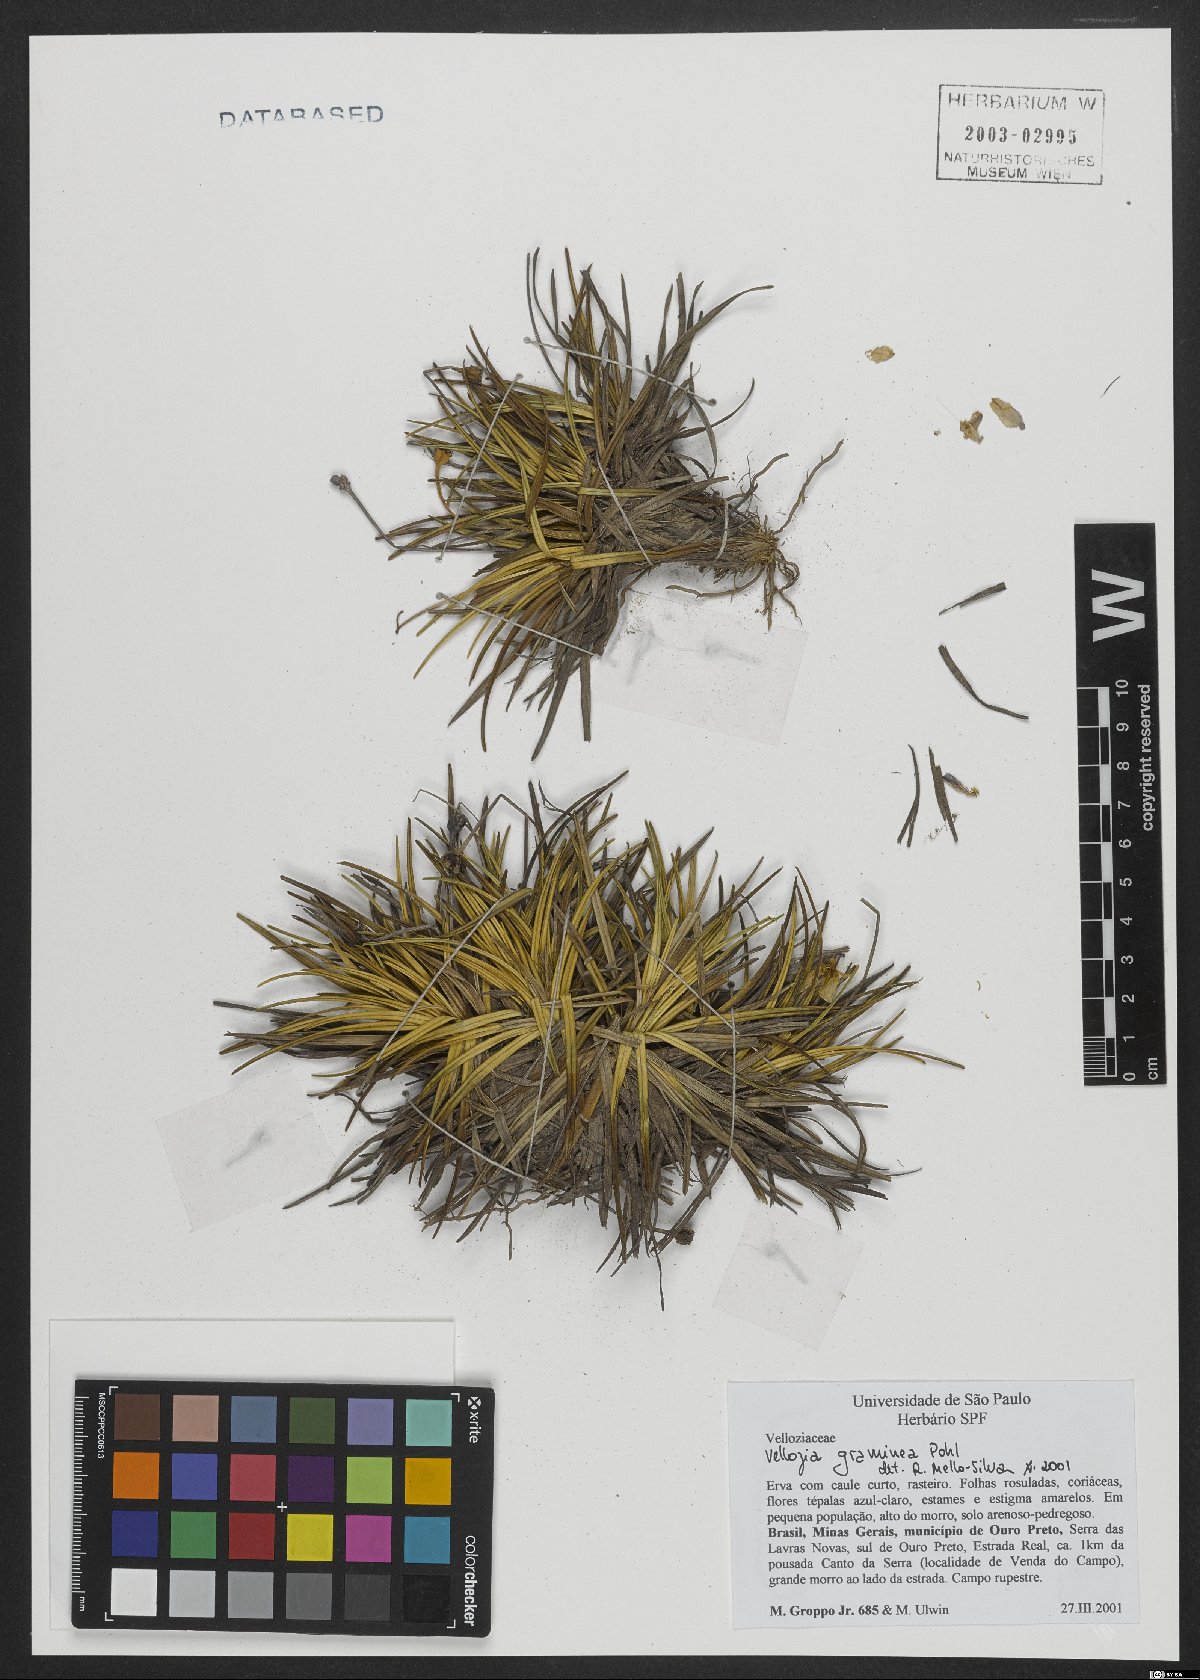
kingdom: Plantae
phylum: Tracheophyta
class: Liliopsida
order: Pandanales
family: Velloziaceae
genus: Vellozia
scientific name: Vellozia graminea
